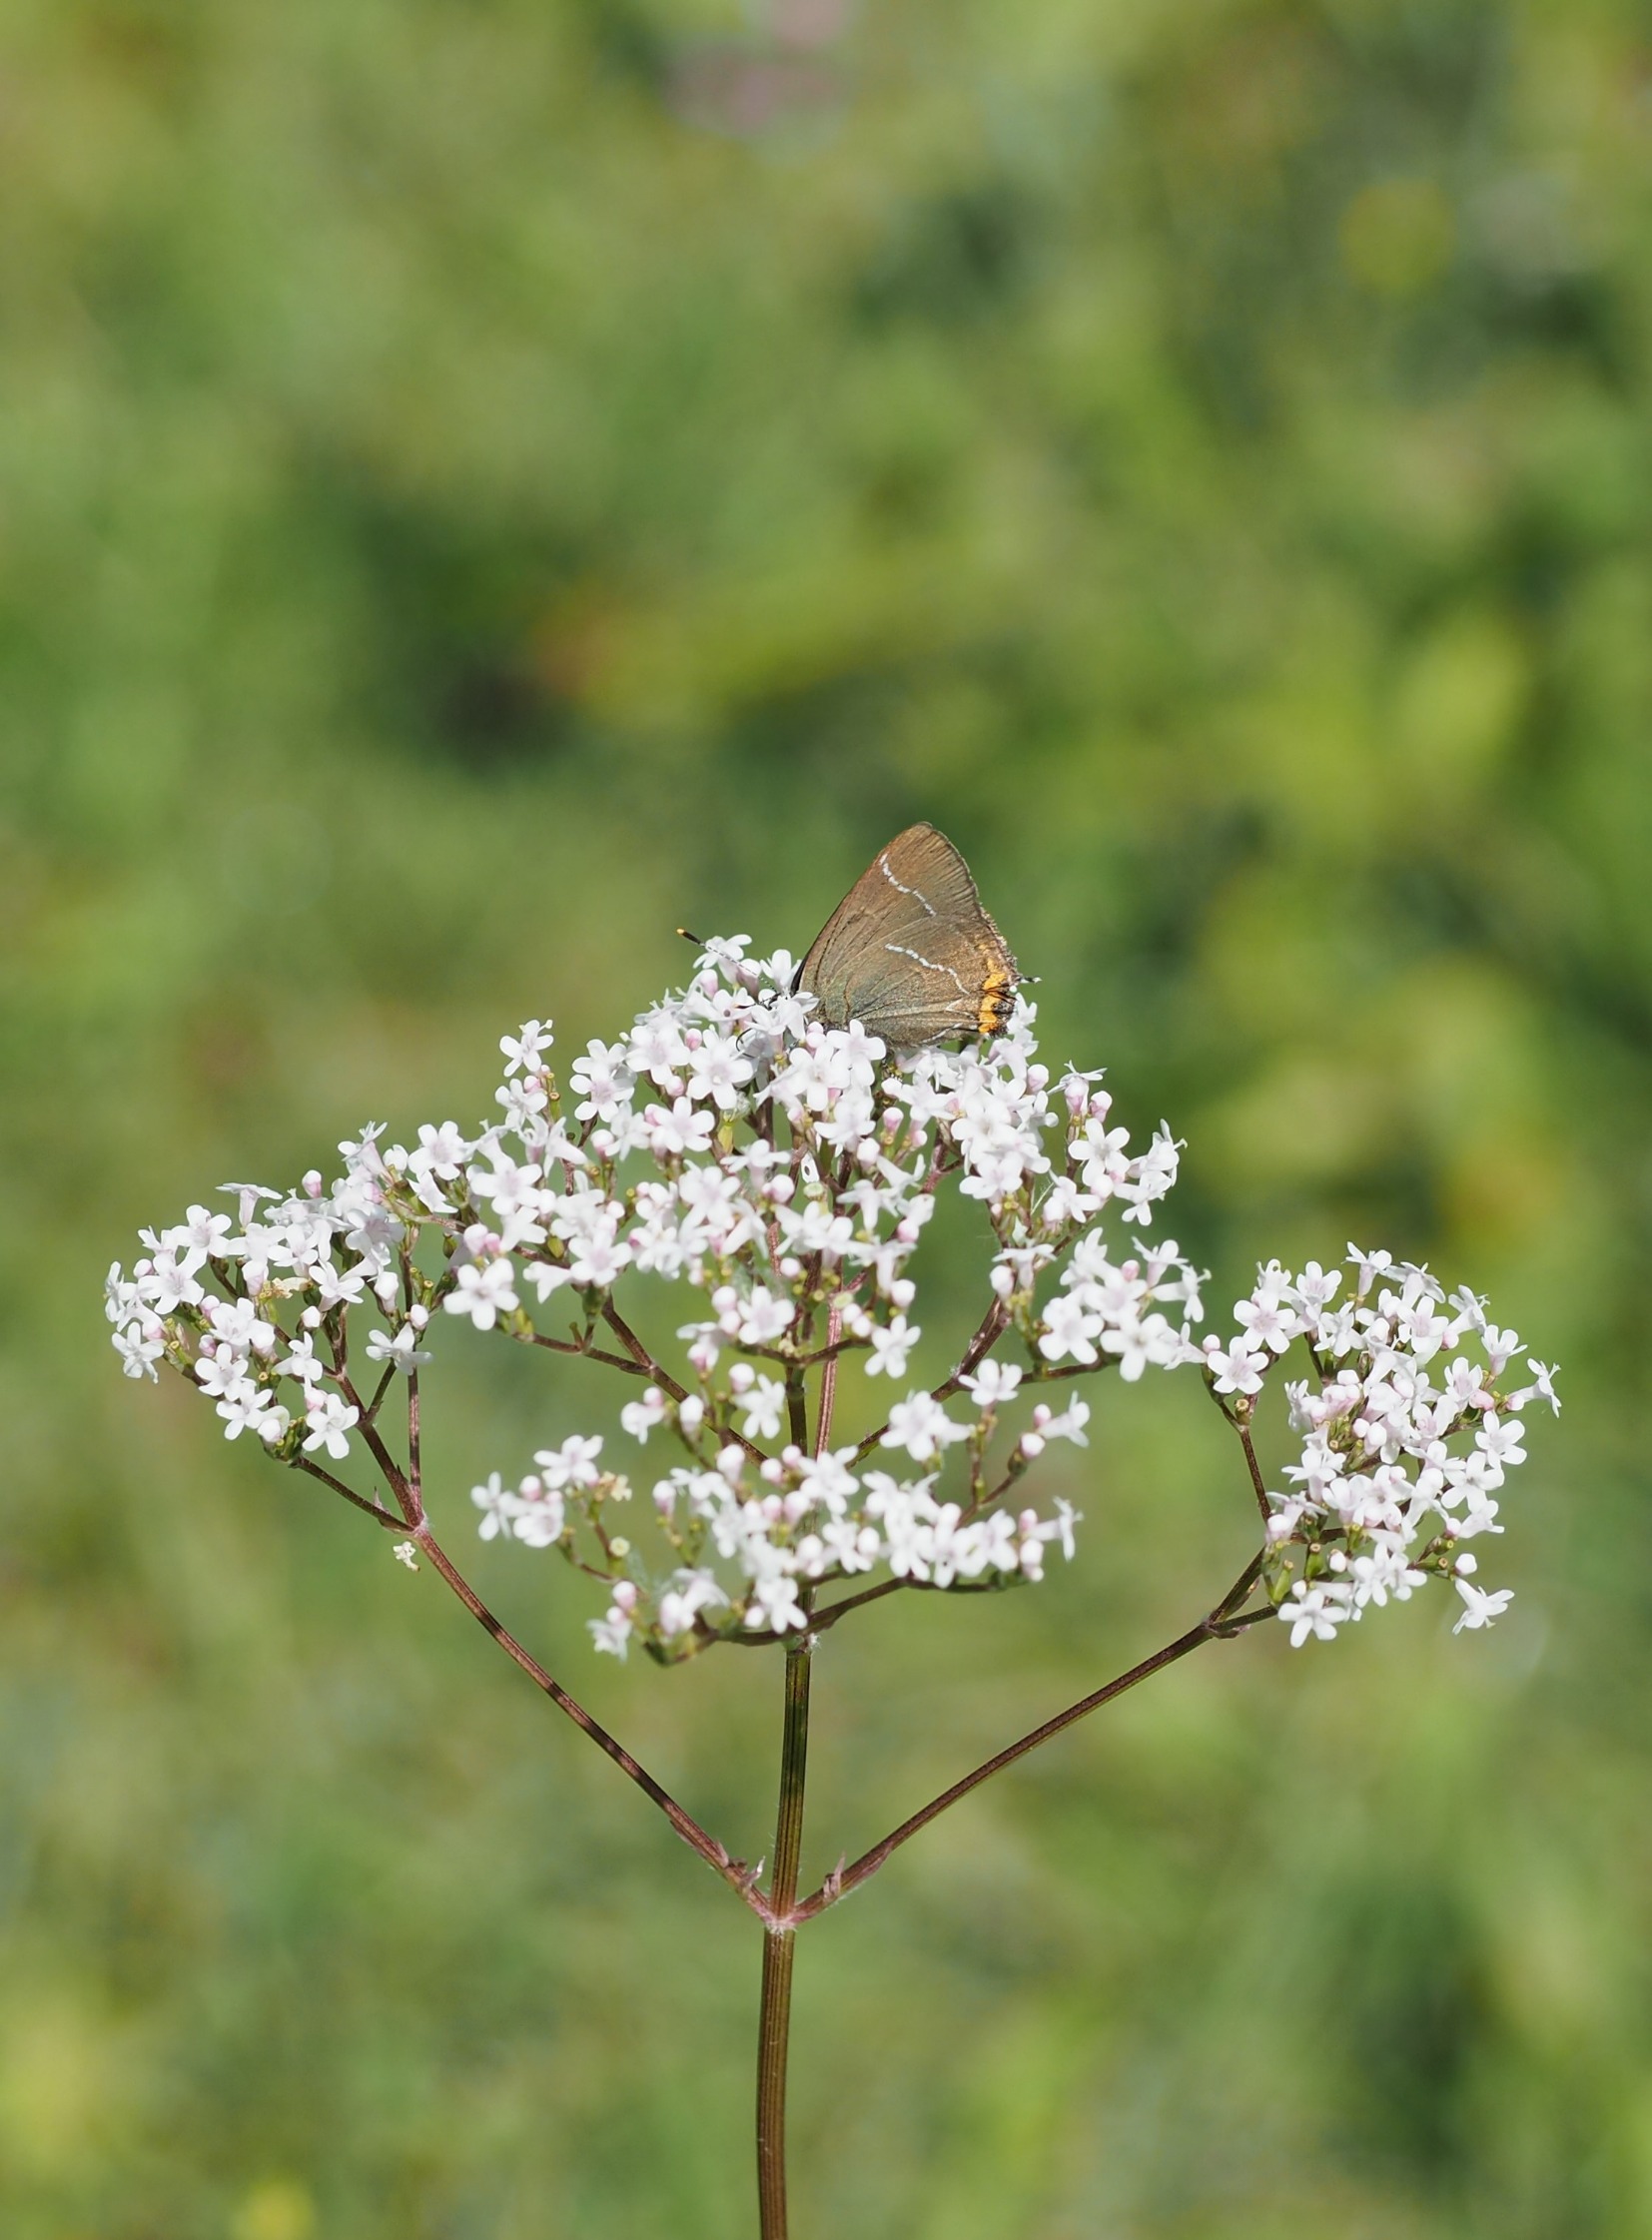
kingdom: Animalia
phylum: Arthropoda
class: Insecta
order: Lepidoptera
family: Lycaenidae
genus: Satyrium
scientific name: Satyrium w-album
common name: Det hvide W
